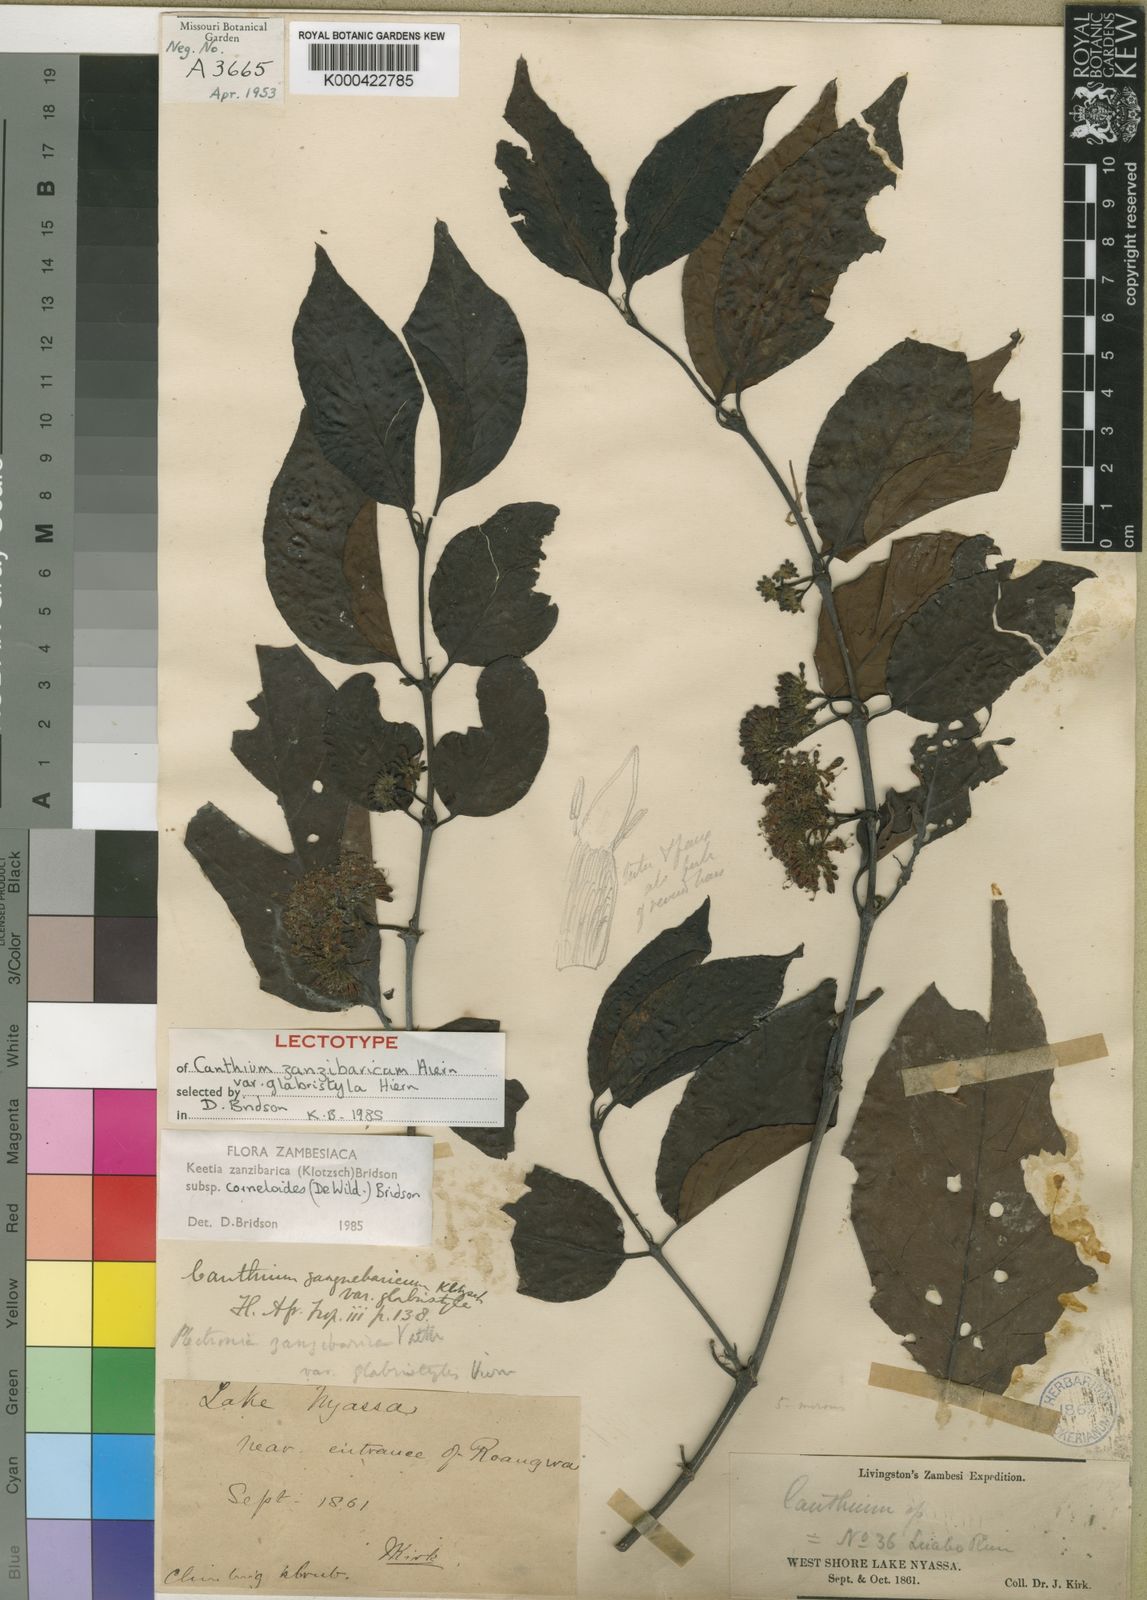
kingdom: Plantae
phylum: Tracheophyta
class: Magnoliopsida
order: Gentianales
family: Rubiaceae
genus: Keetia
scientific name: Keetia zanzibarica
